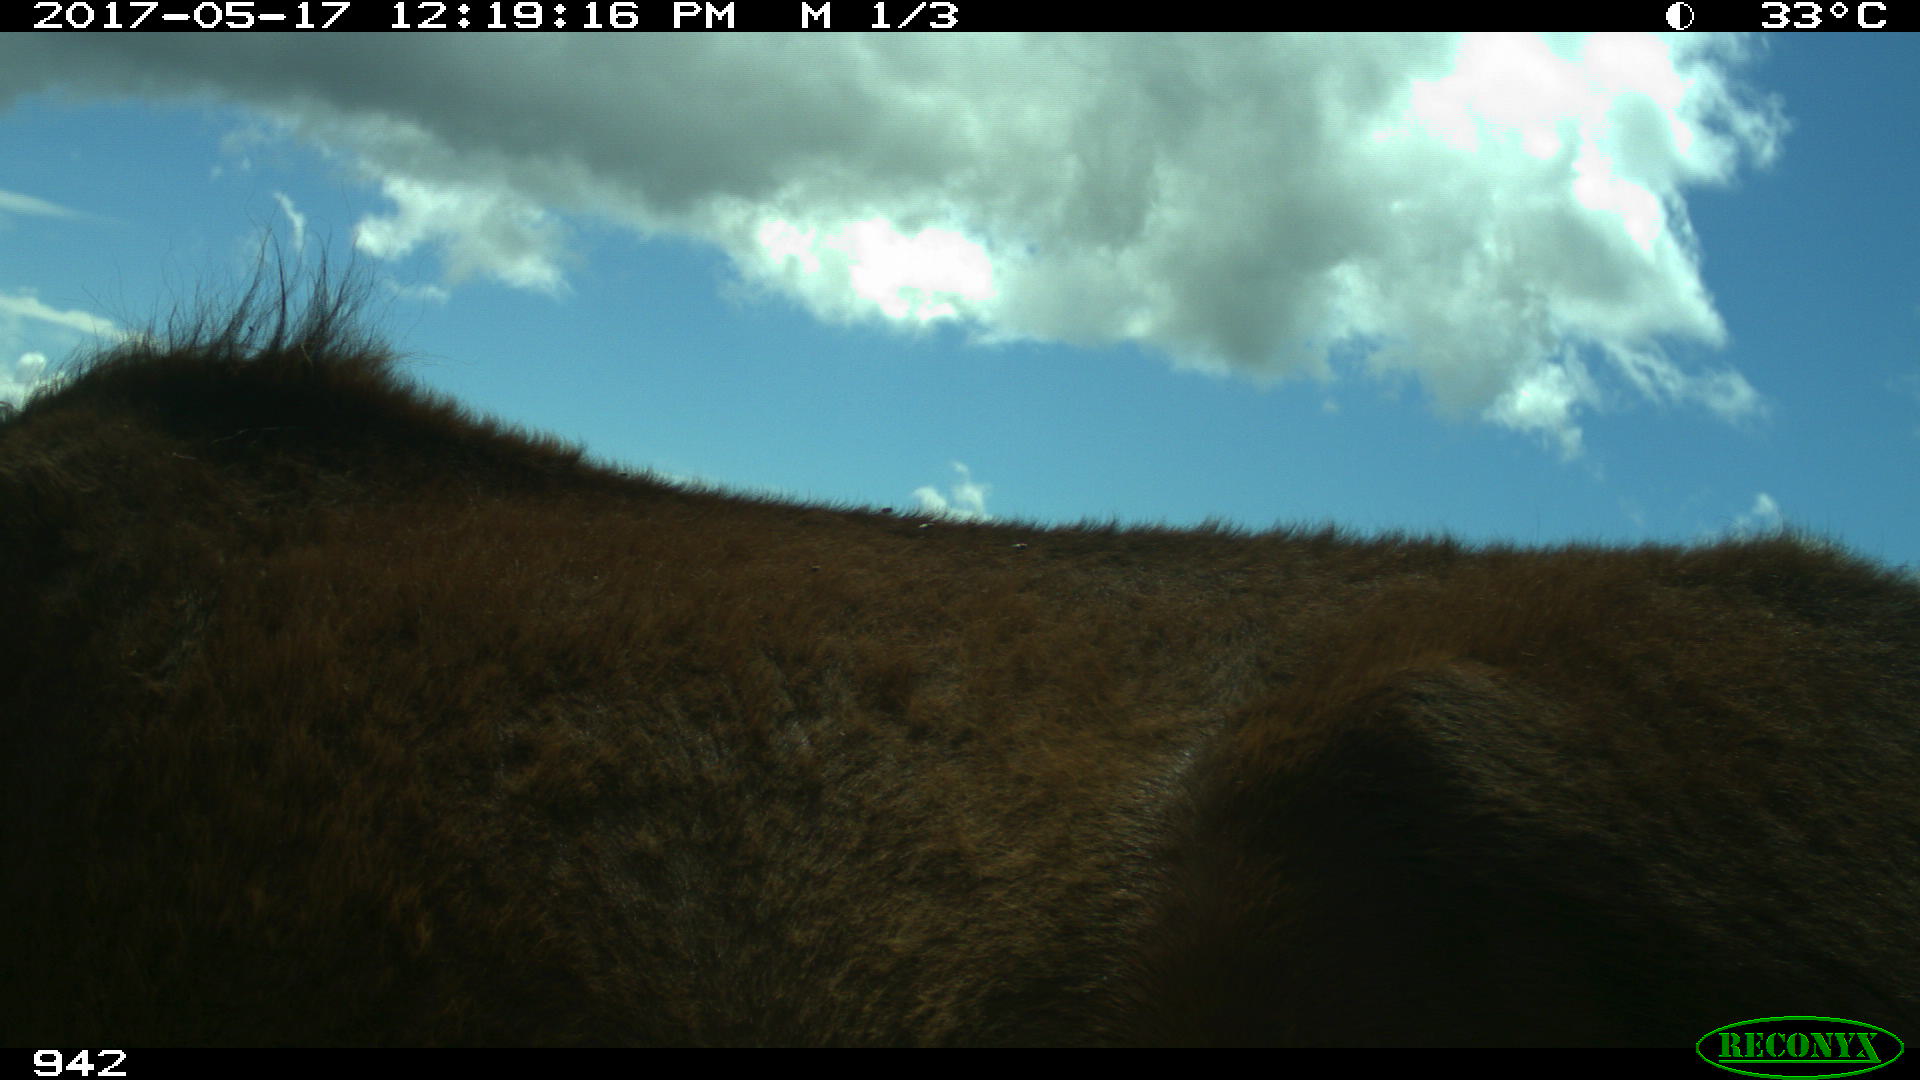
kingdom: Animalia
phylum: Chordata
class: Mammalia
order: Perissodactyla
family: Equidae
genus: Equus
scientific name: Equus caballus
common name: Horse
